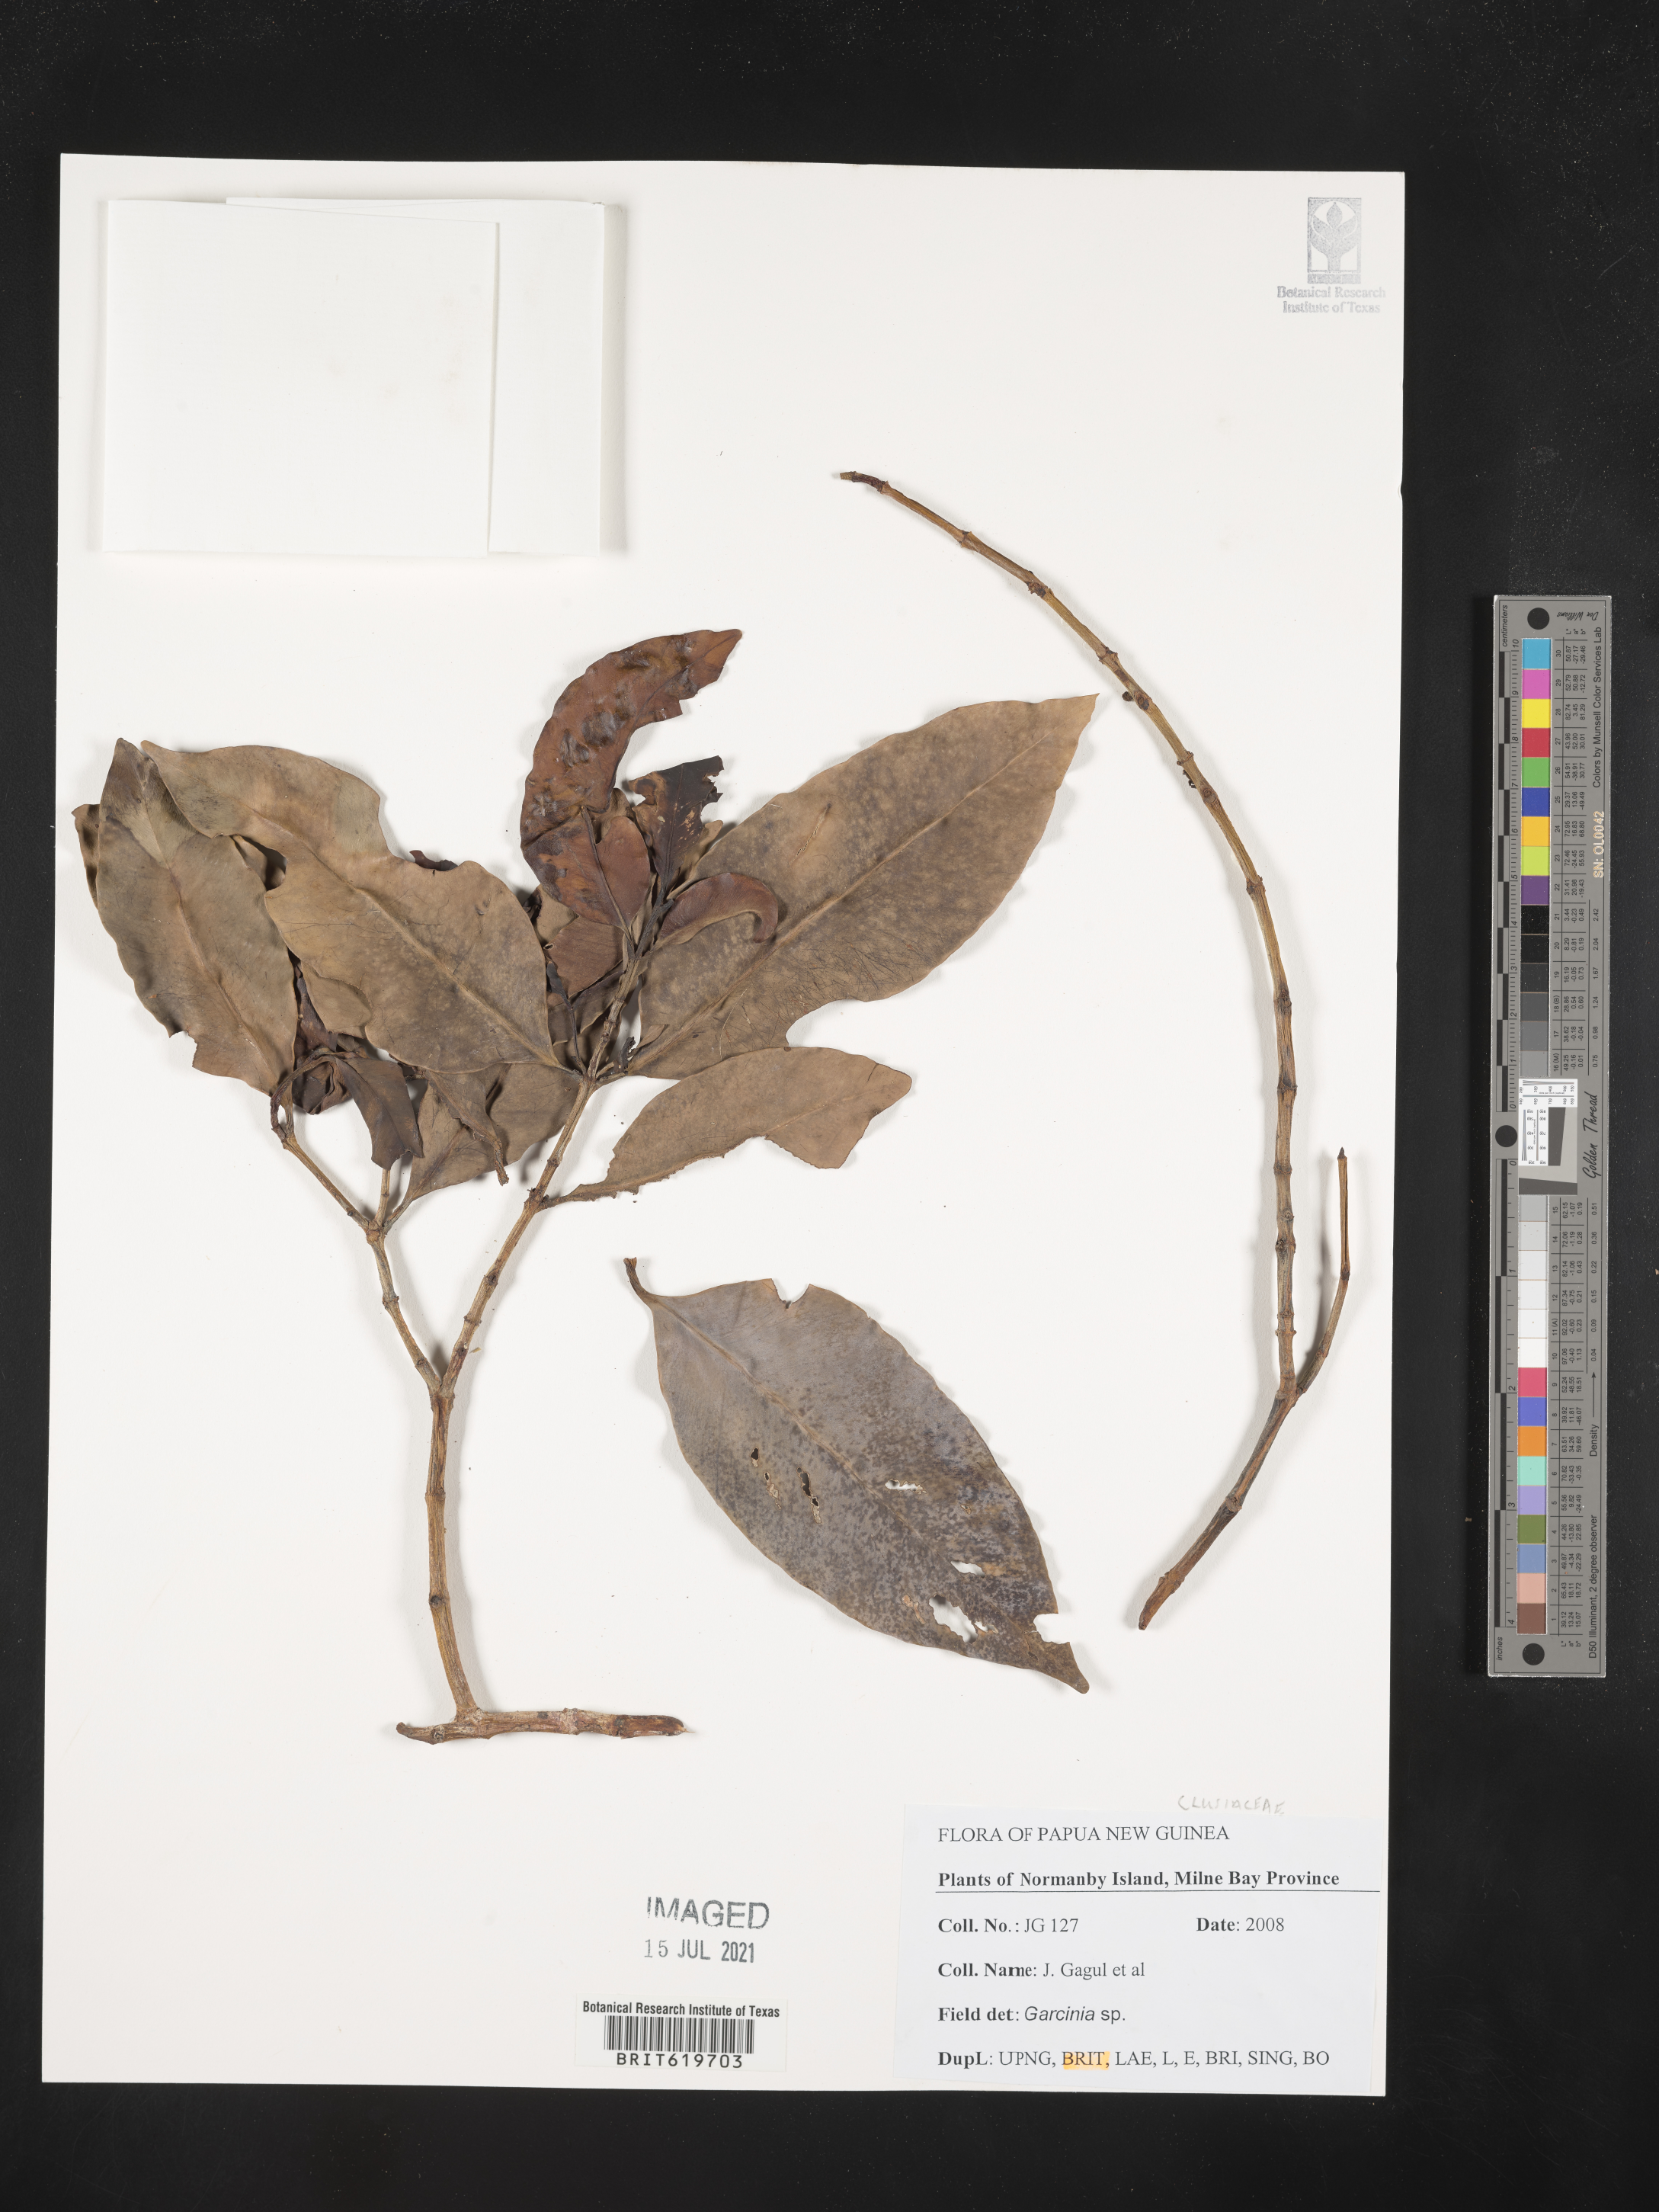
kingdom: Plantae
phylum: Tracheophyta
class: Magnoliopsida
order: Malpighiales
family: Clusiaceae
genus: Garcinia
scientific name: Garcinia
